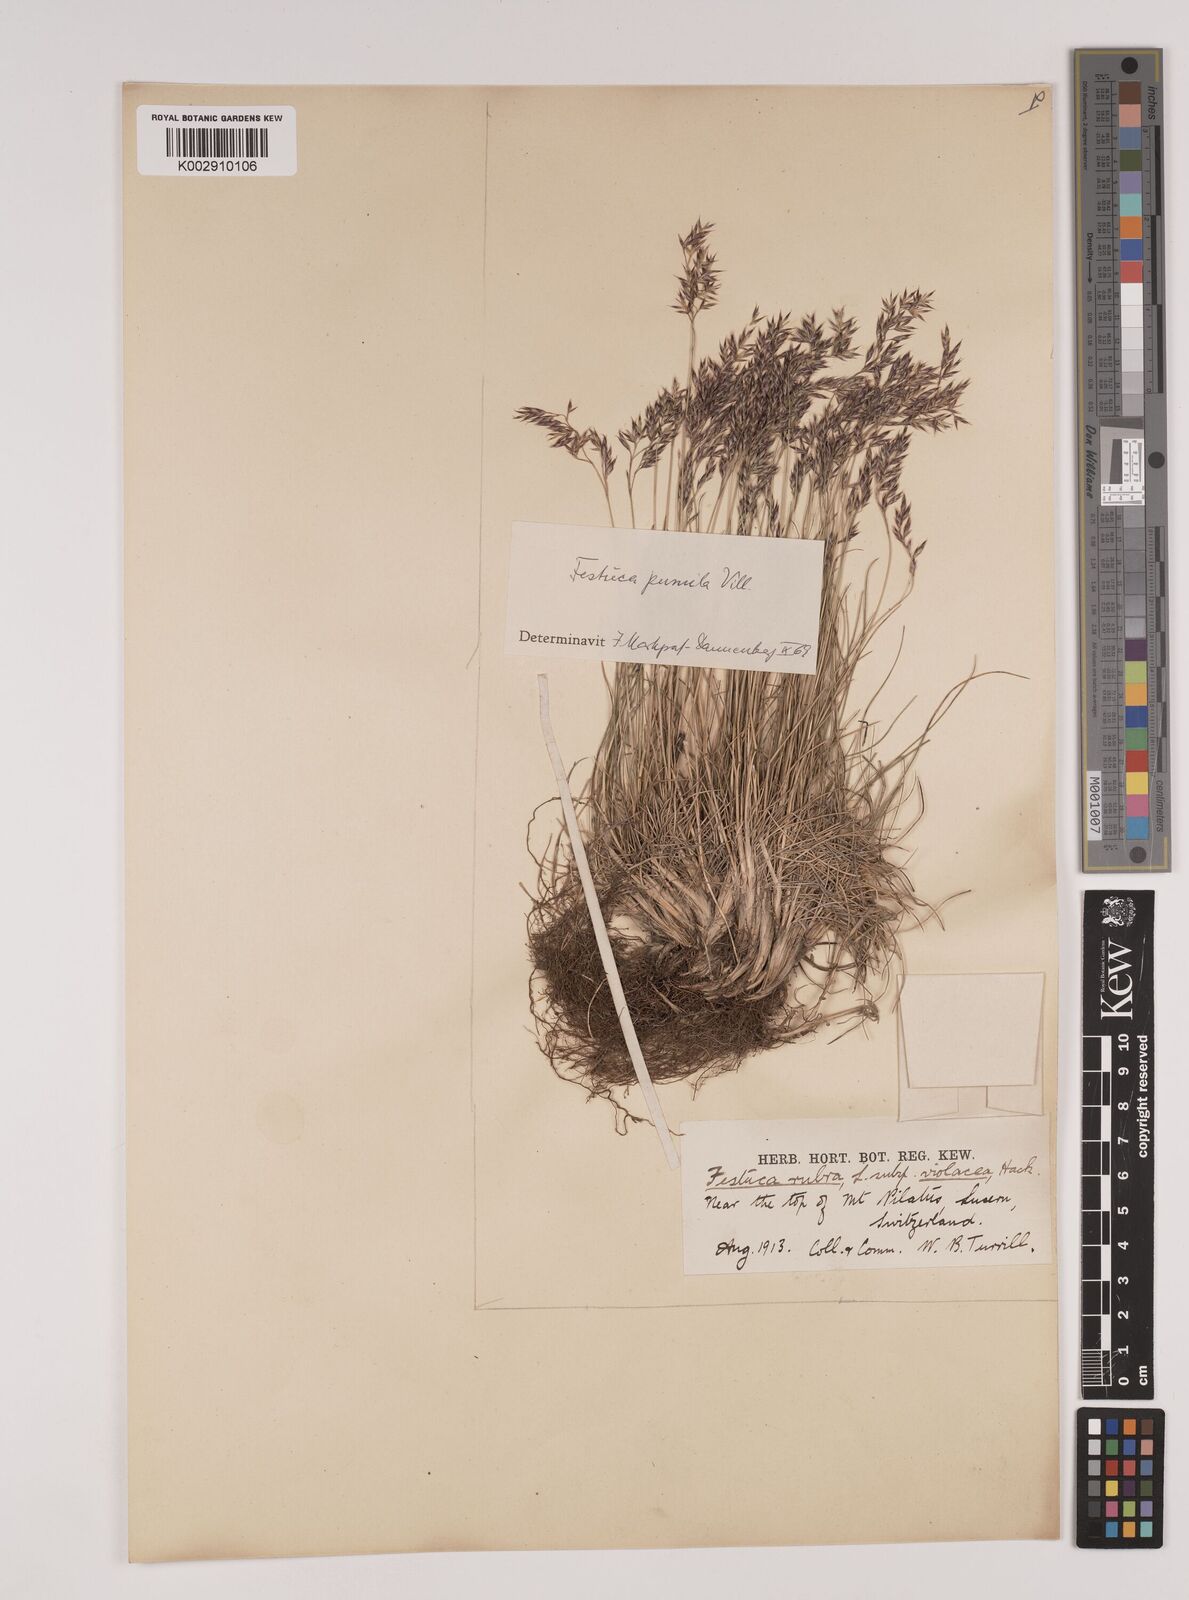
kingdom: Plantae
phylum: Tracheophyta
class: Liliopsida
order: Poales
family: Poaceae
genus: Festuca
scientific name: Festuca
